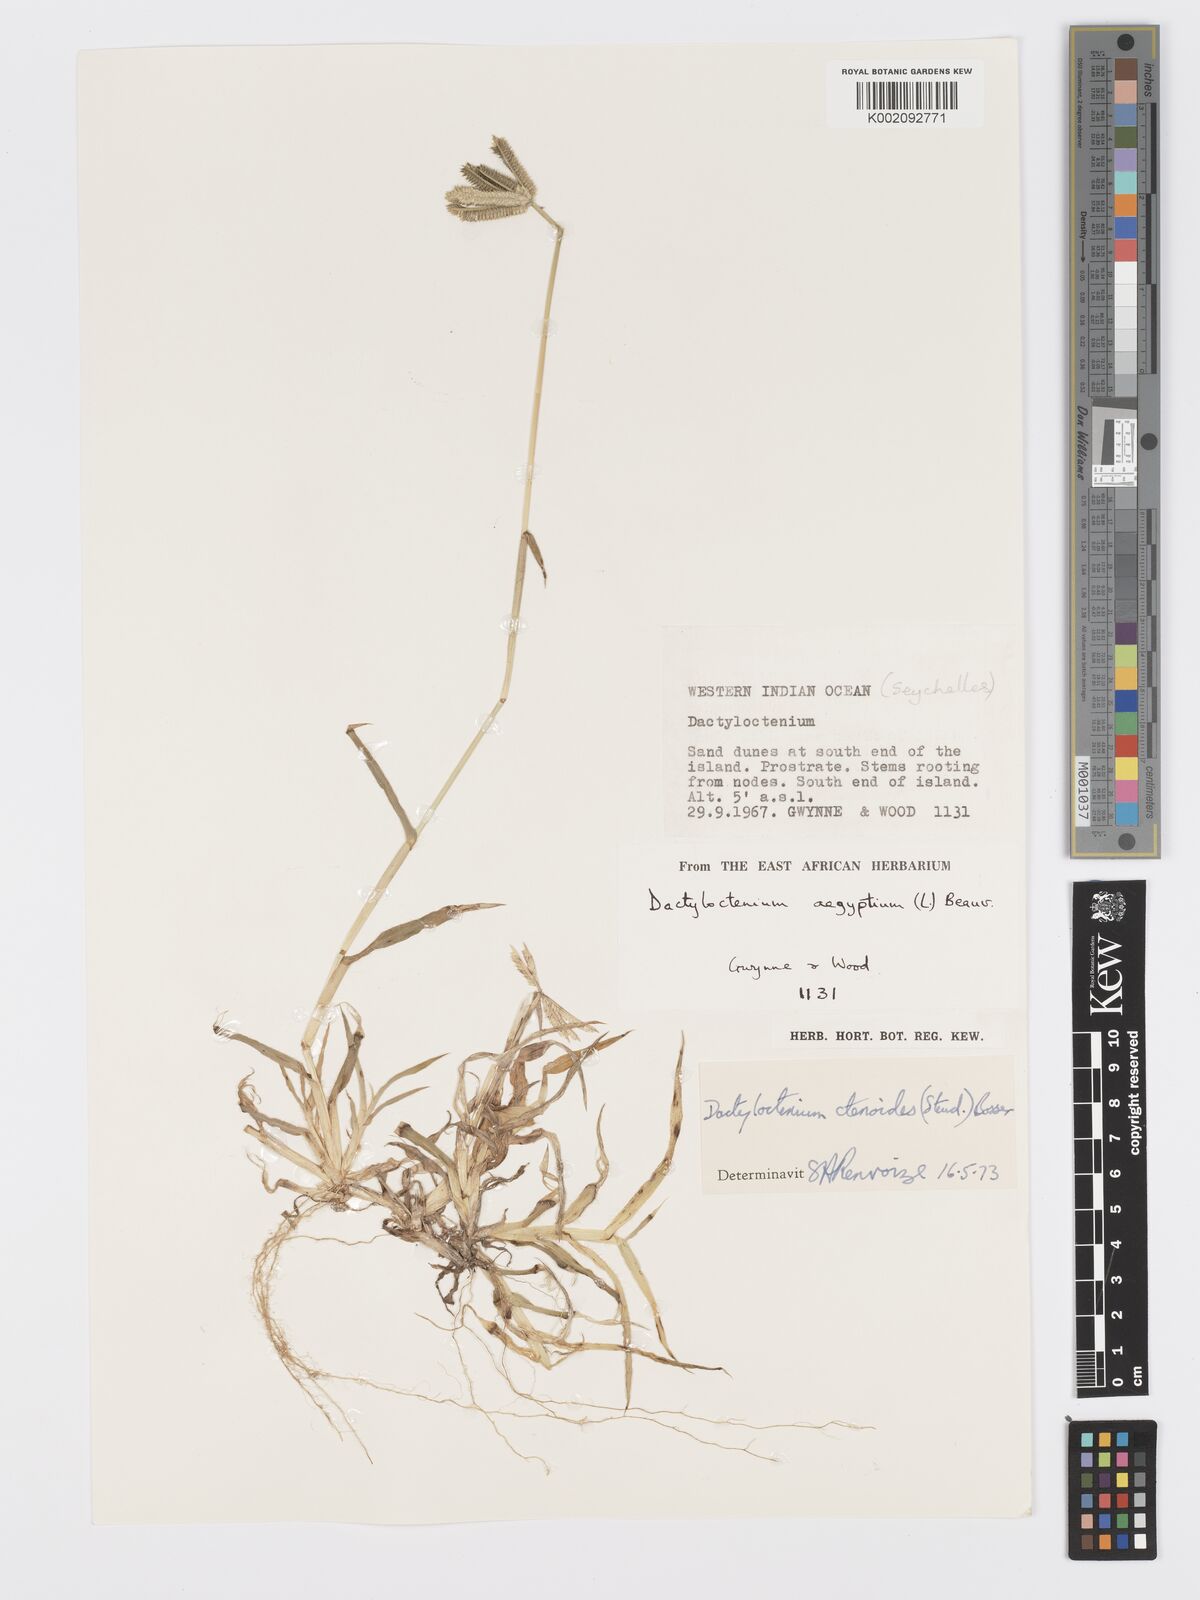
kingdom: Plantae
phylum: Tracheophyta
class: Liliopsida
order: Poales
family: Poaceae
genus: Dactyloctenium
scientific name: Dactyloctenium ctenoides
